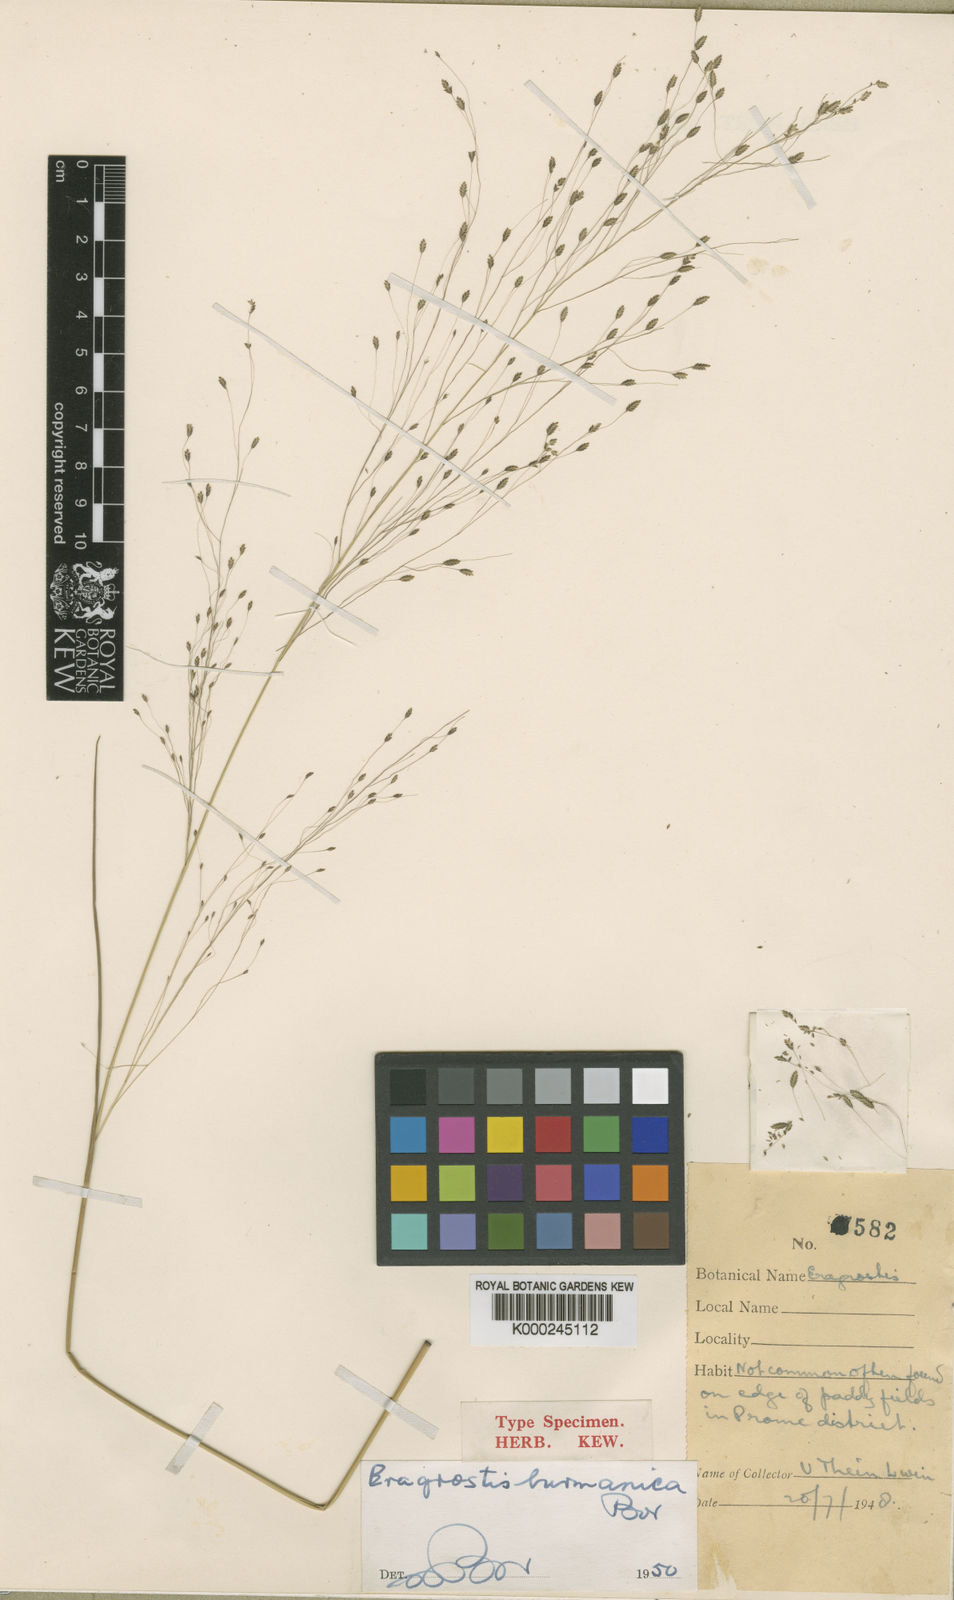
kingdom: Plantae
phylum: Tracheophyta
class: Liliopsida
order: Poales
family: Poaceae
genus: Eragrostis
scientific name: Eragrostis burmanica
